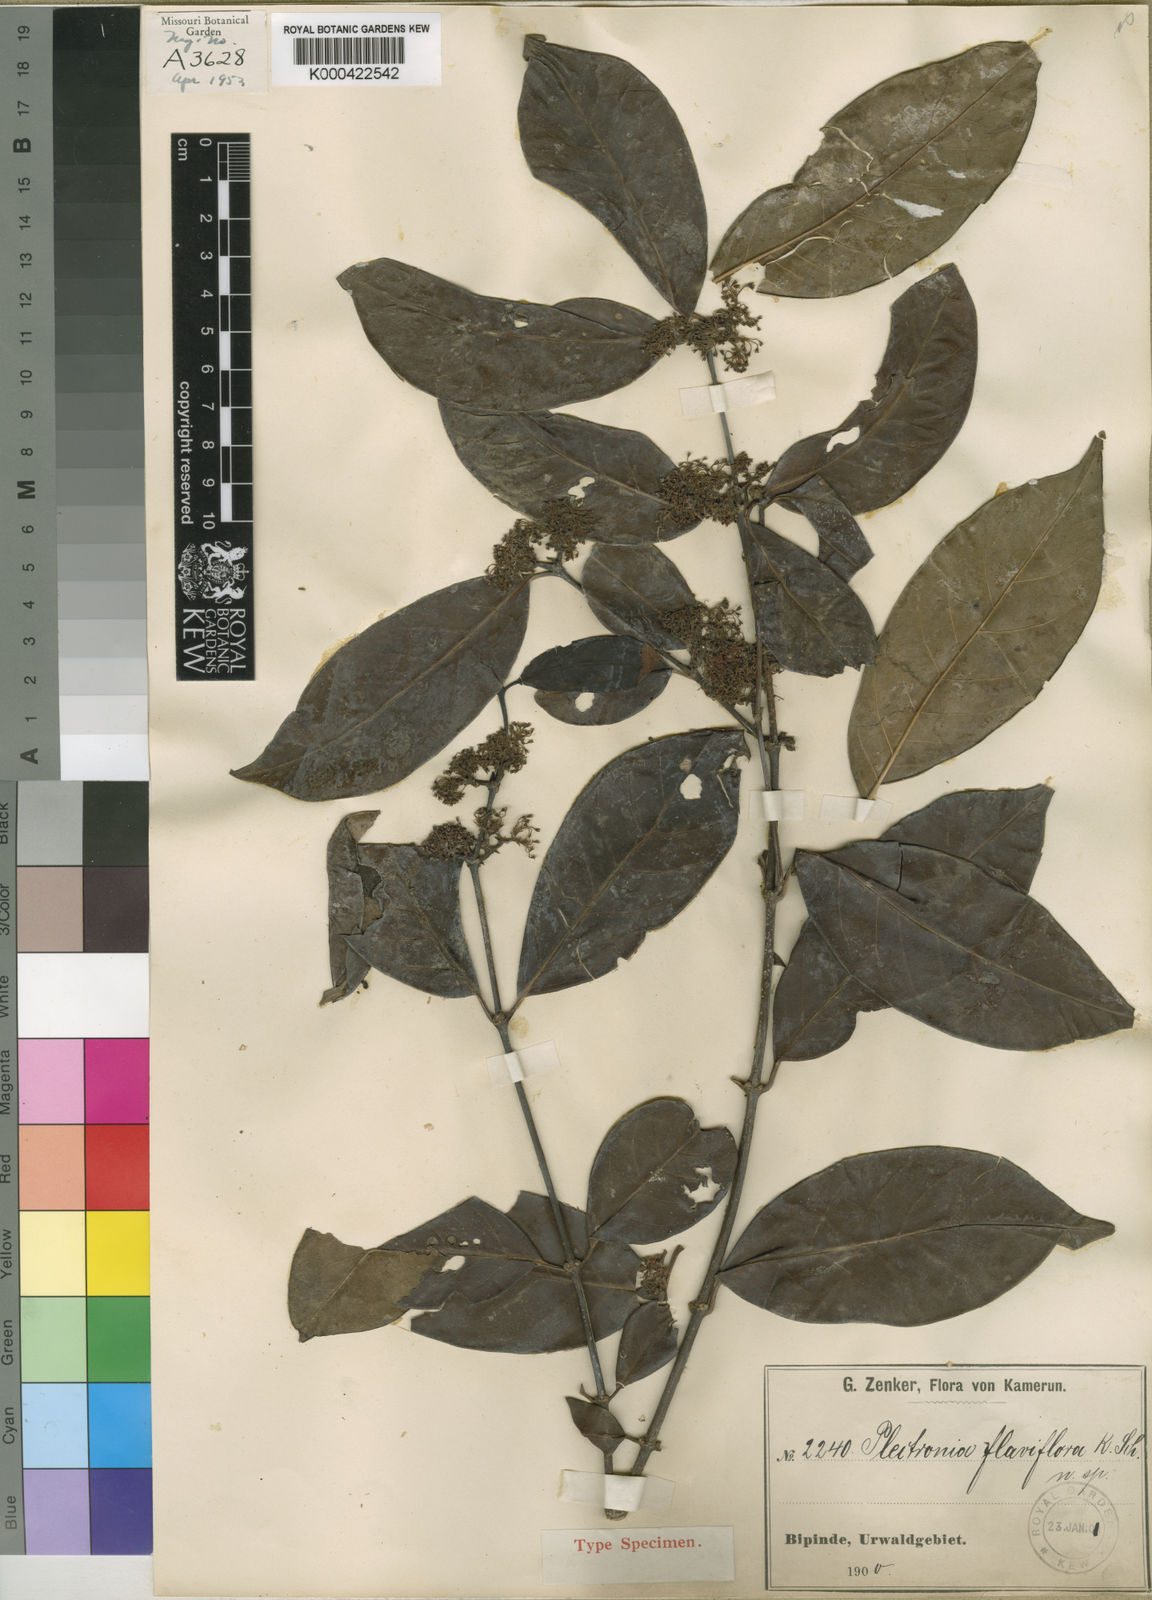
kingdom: Plantae
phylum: Tracheophyta
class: Magnoliopsida
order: Gentianales
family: Rubiaceae
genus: Keetia
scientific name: Keetia mannii
